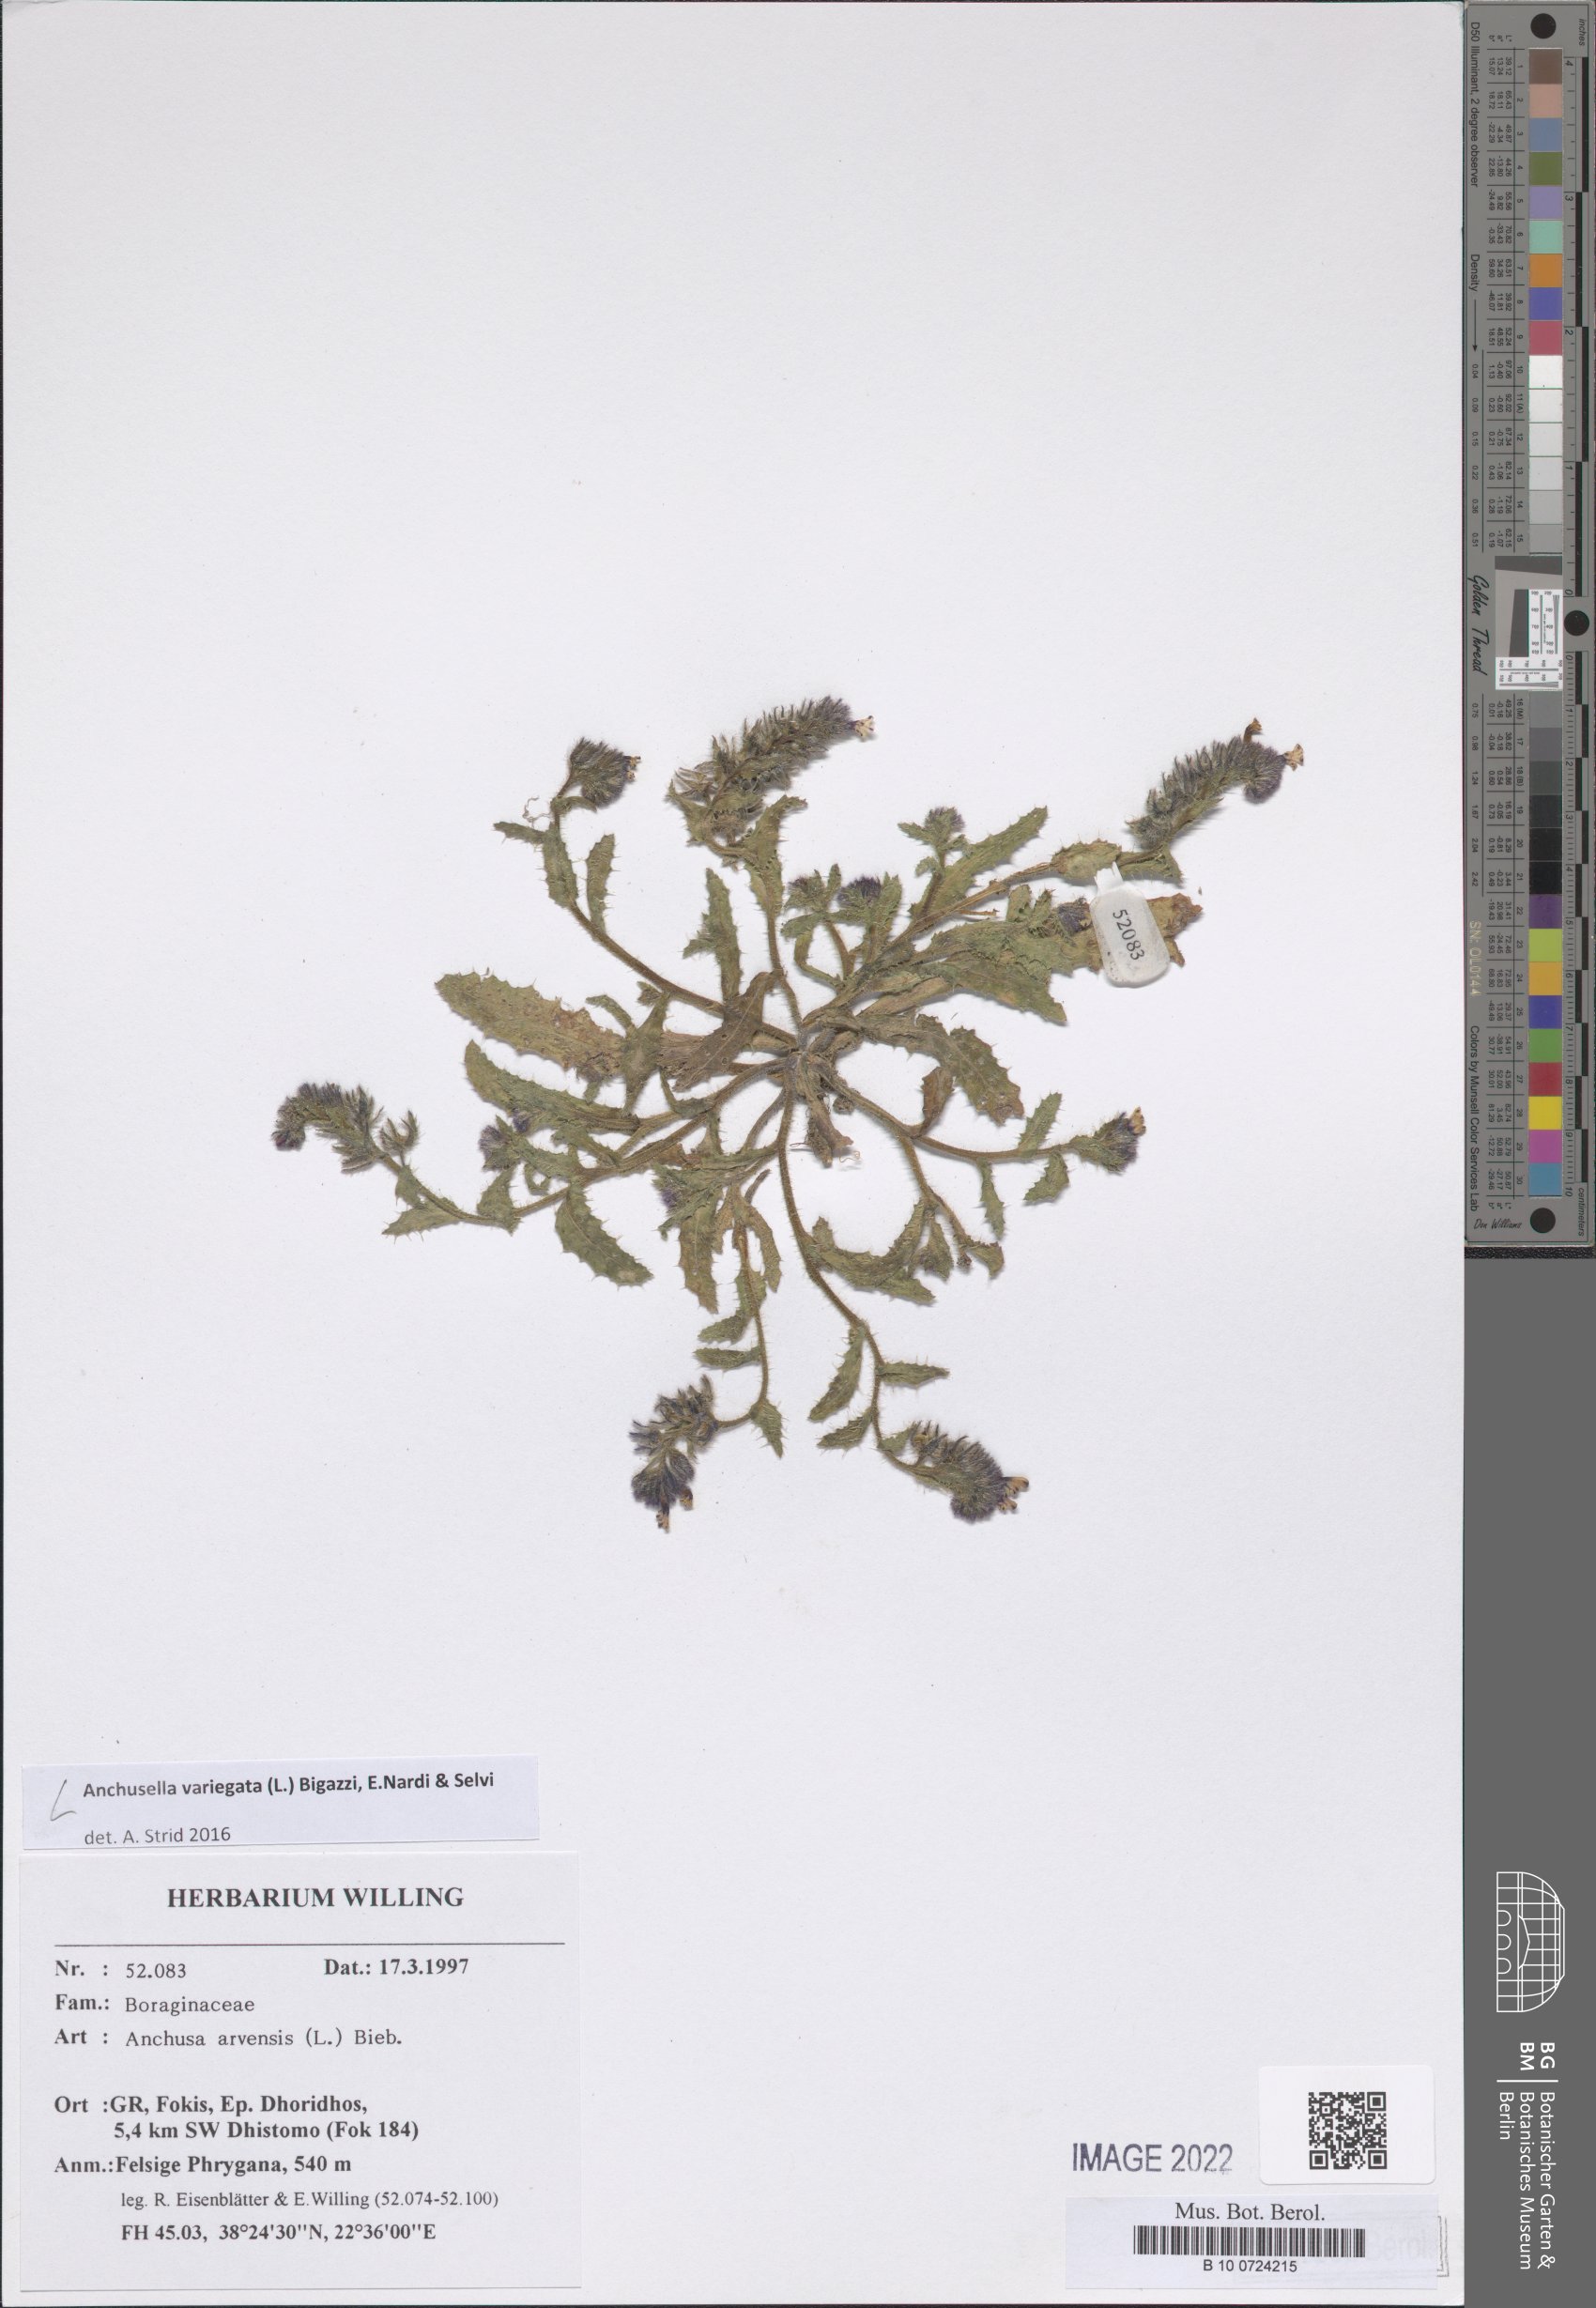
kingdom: Plantae
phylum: Tracheophyta
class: Magnoliopsida
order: Boraginales
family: Boraginaceae
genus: Anchusella
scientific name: Anchusella variegata
